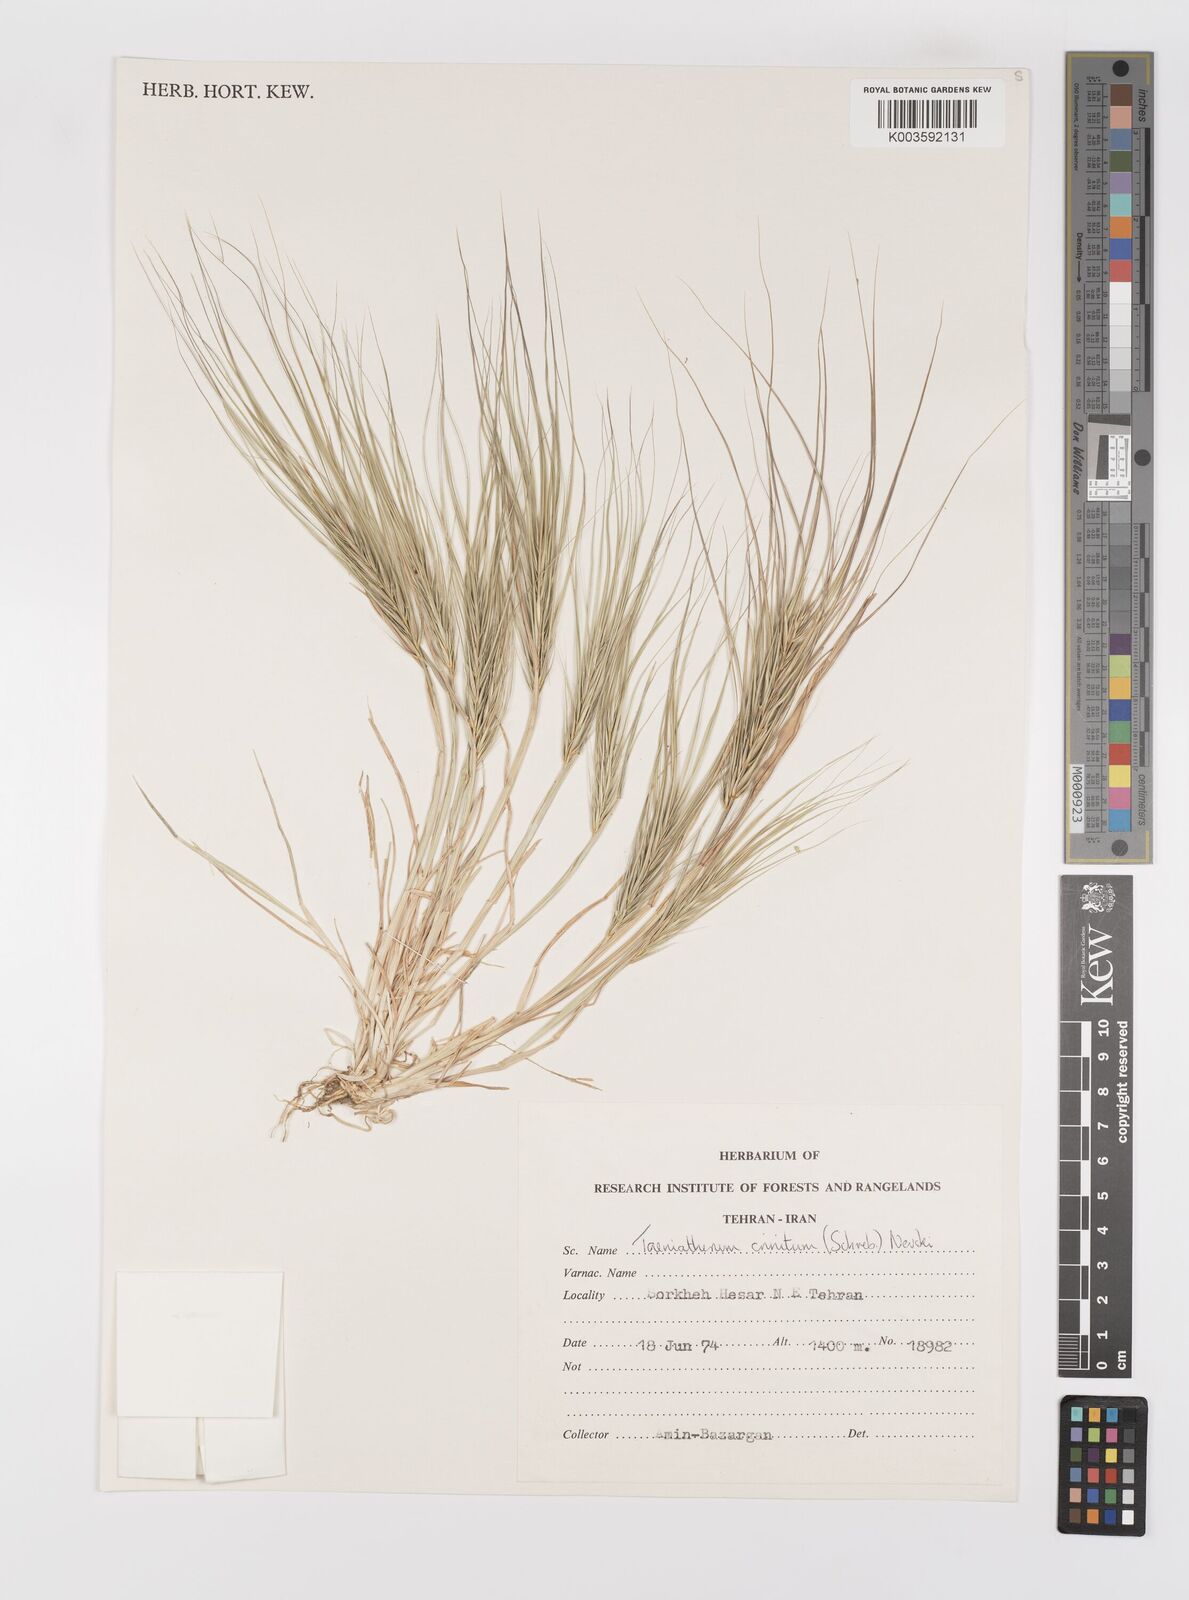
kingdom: Plantae
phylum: Tracheophyta
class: Liliopsida
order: Poales
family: Poaceae
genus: Taeniatherum
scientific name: Taeniatherum caput-medusae
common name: Medusahead
